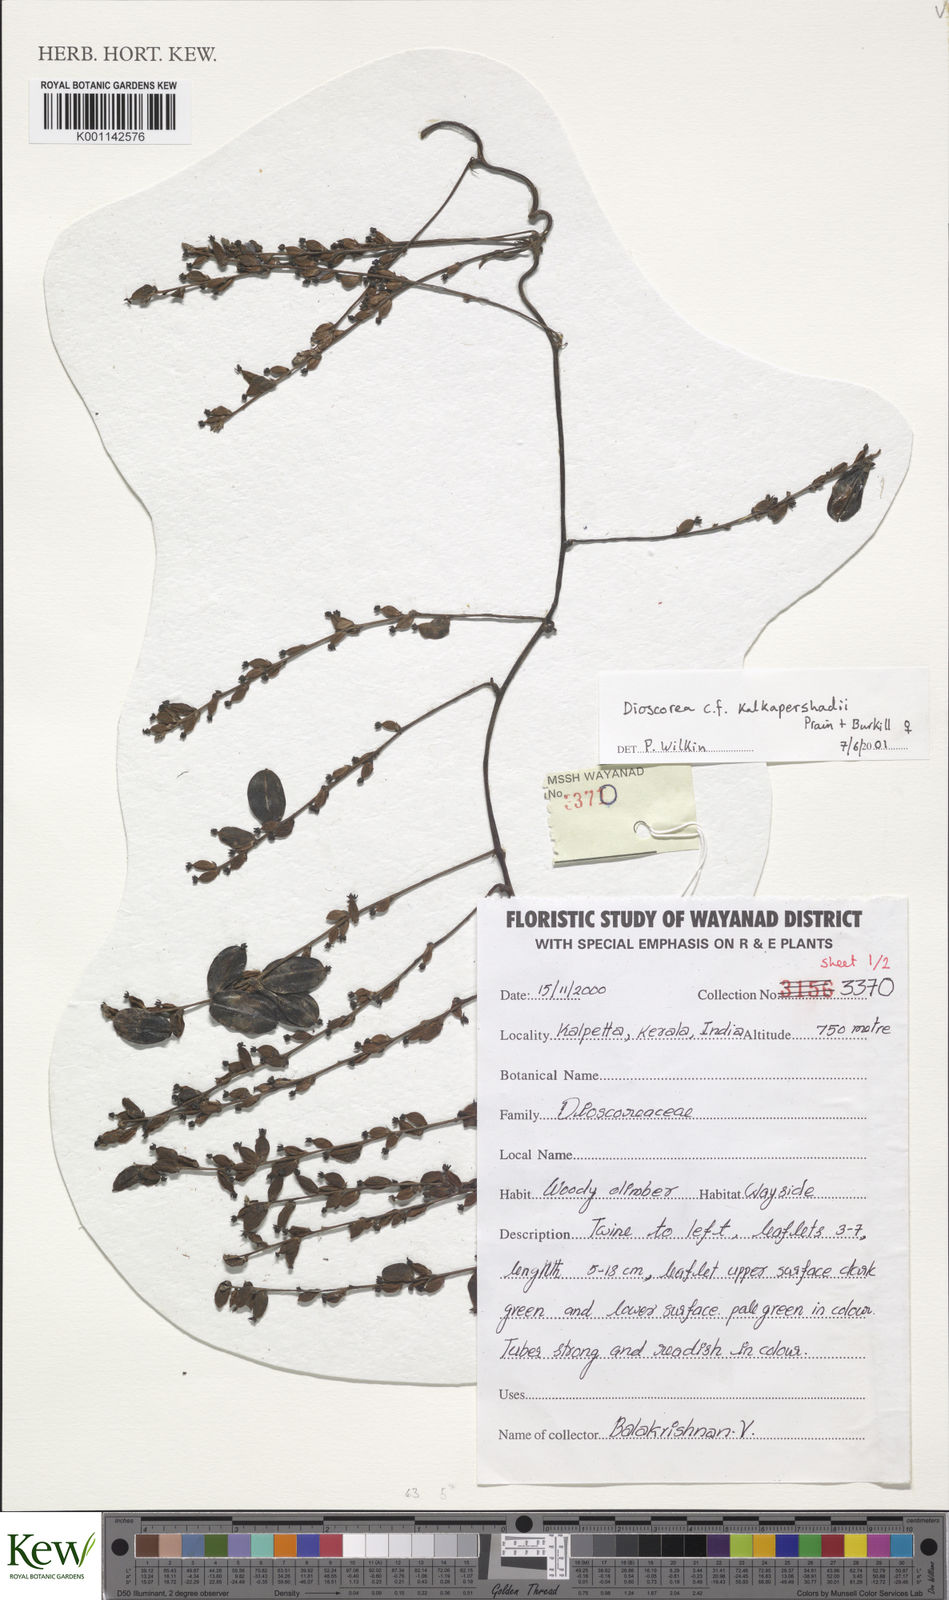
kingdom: Plantae
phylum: Tracheophyta
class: Liliopsida
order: Dioscoreales
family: Dioscoreaceae
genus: Dioscorea
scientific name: Dioscorea kalkapershadii
